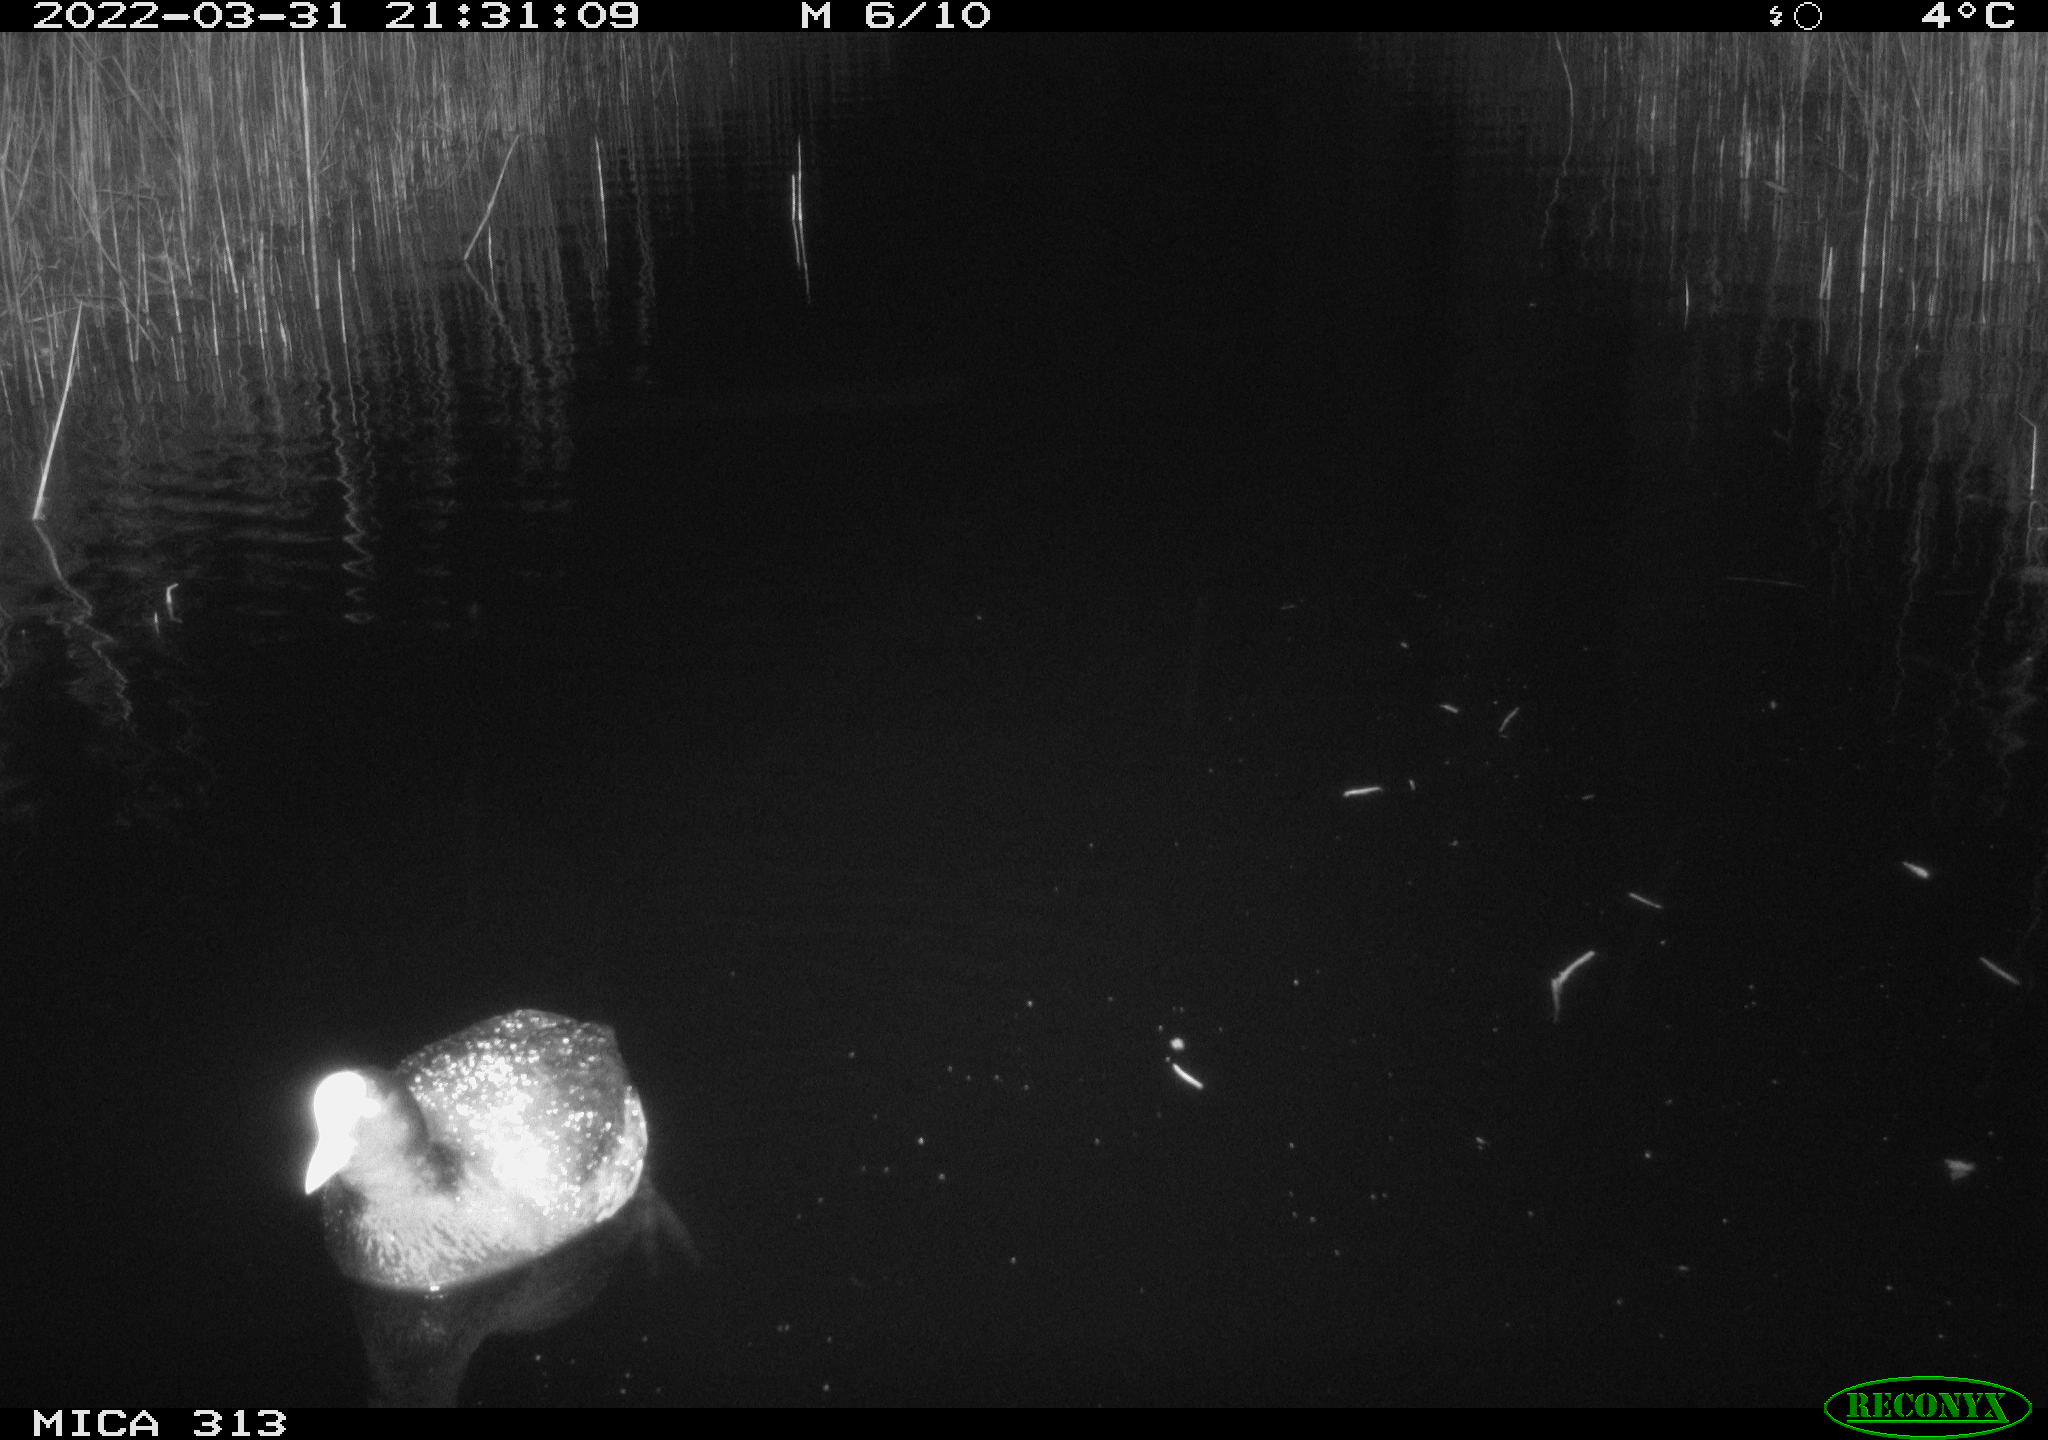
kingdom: Animalia
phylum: Chordata
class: Aves
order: Gruiformes
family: Rallidae
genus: Fulica
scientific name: Fulica atra
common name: Eurasian coot
